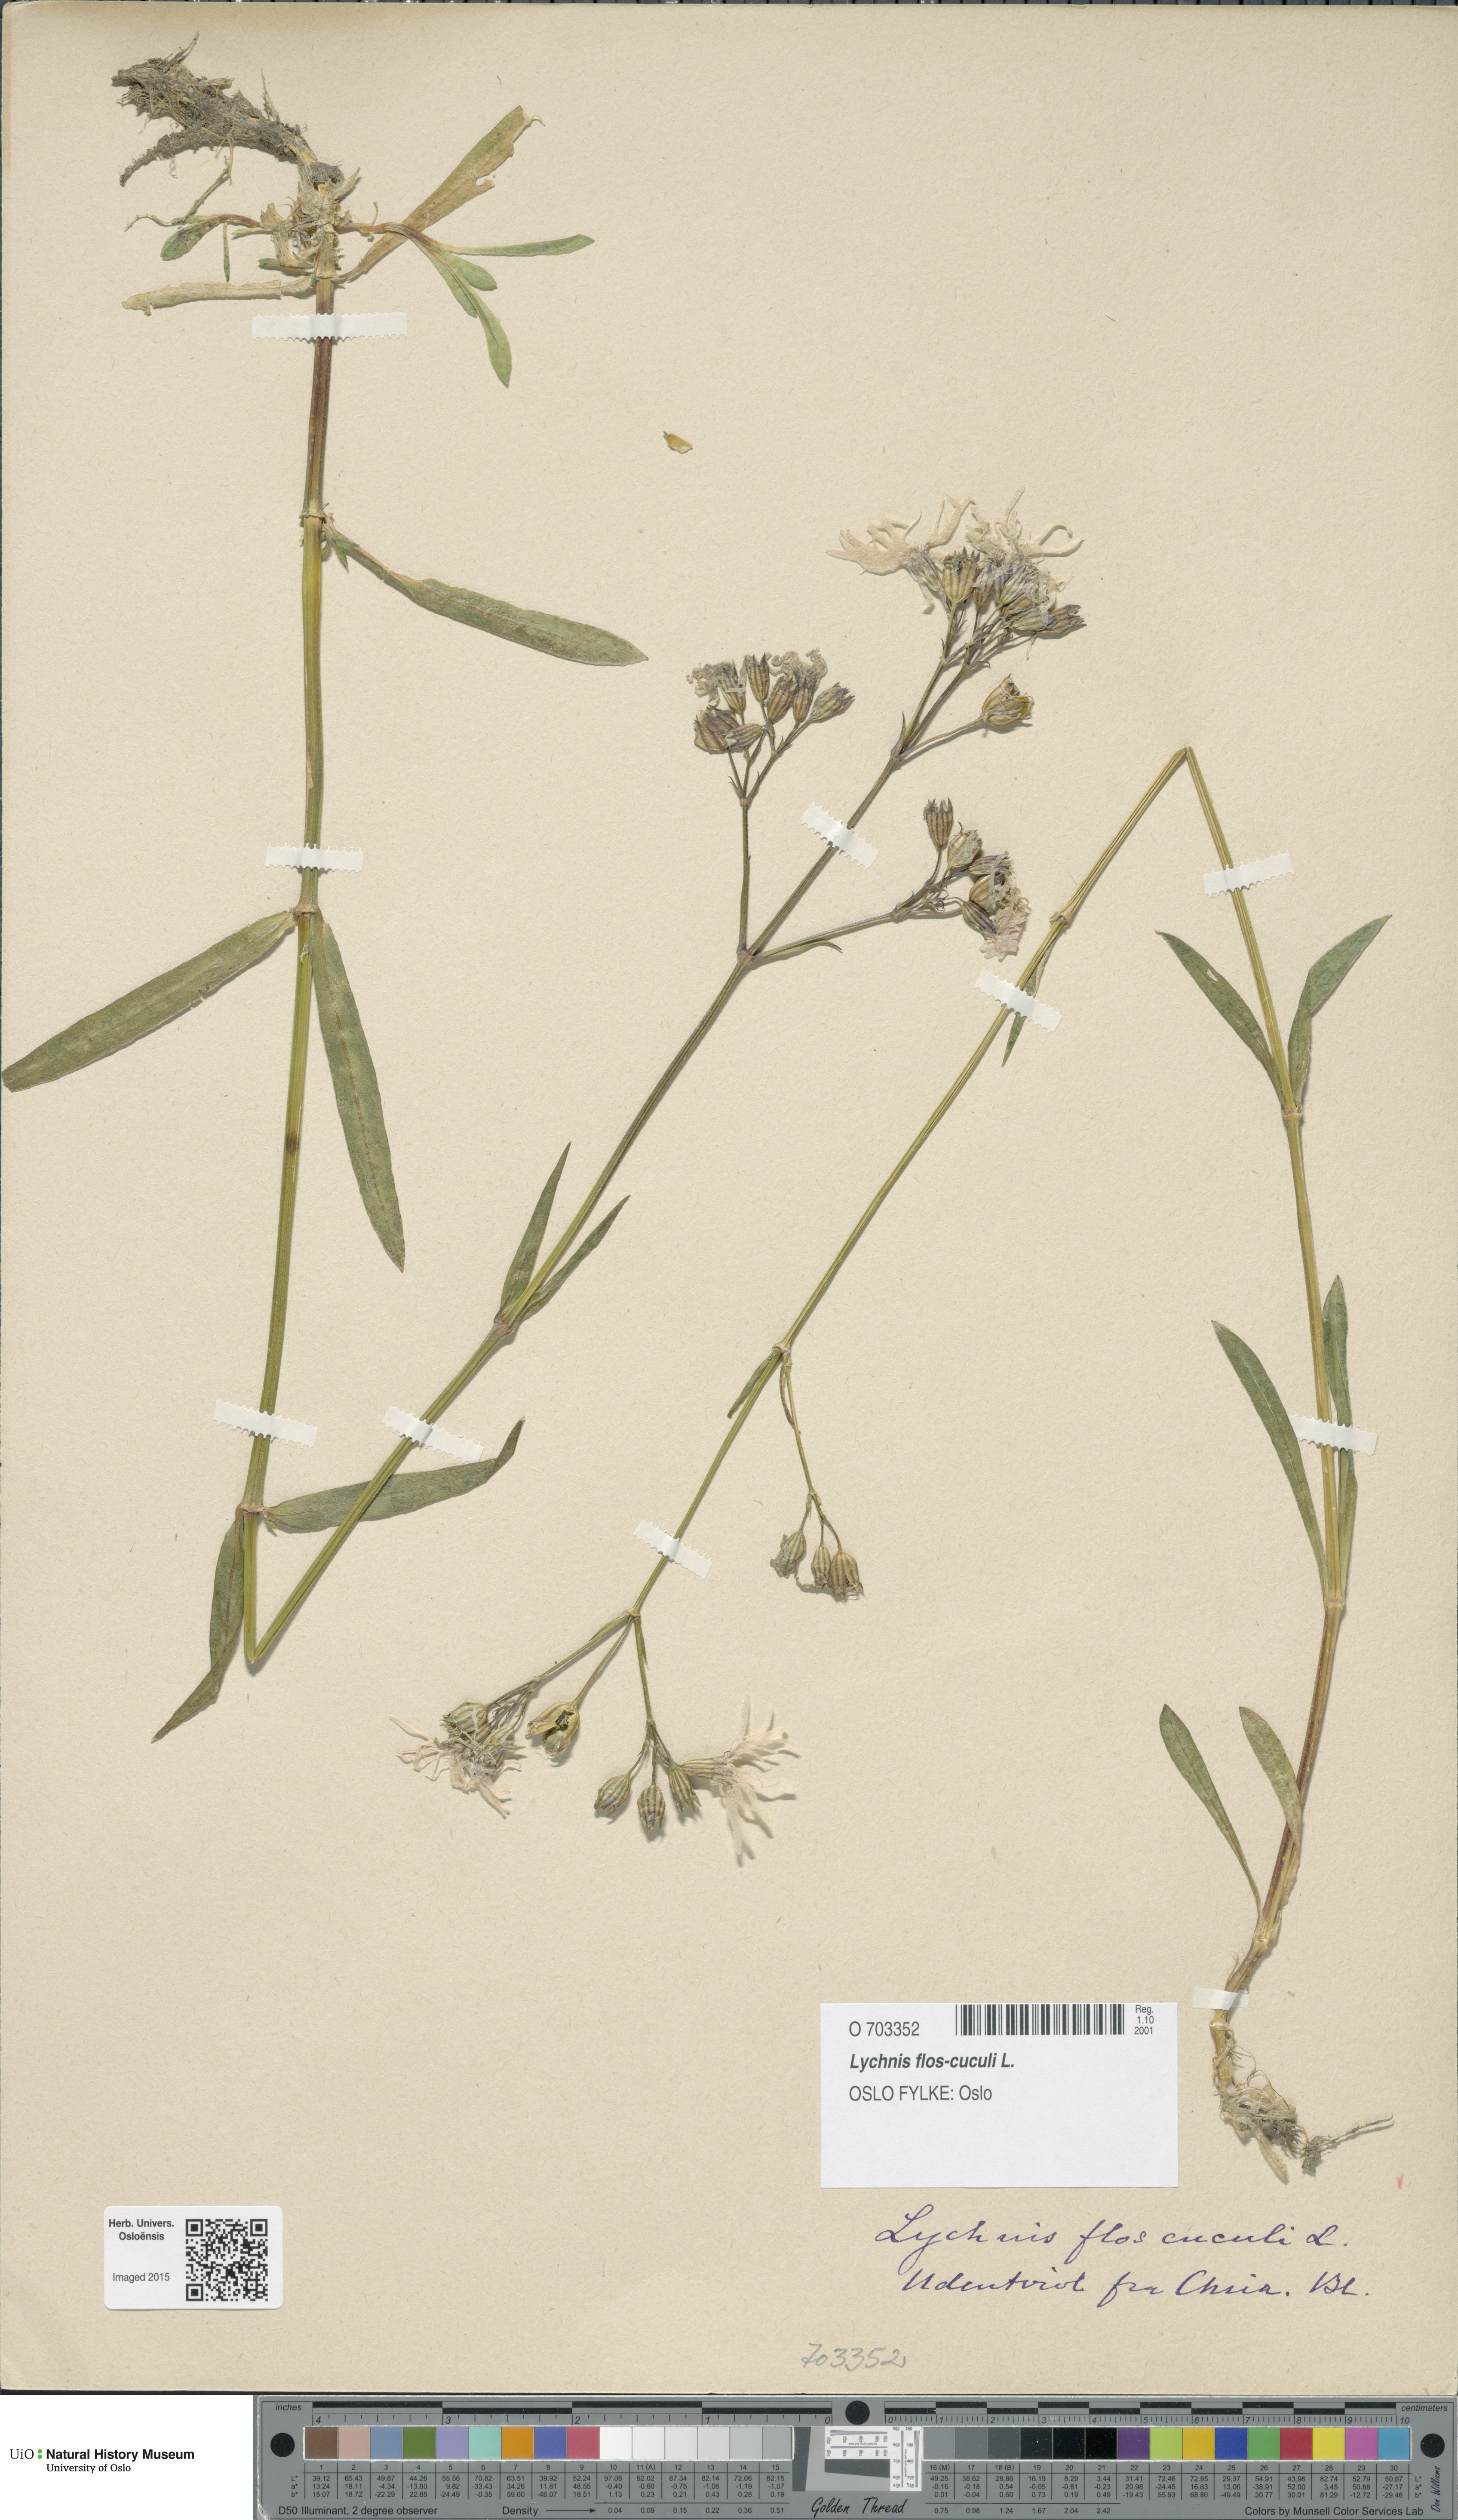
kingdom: Plantae
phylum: Tracheophyta
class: Magnoliopsida
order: Caryophyllales
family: Caryophyllaceae
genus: Silene
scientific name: Silene flos-cuculi
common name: Ragged-robin
